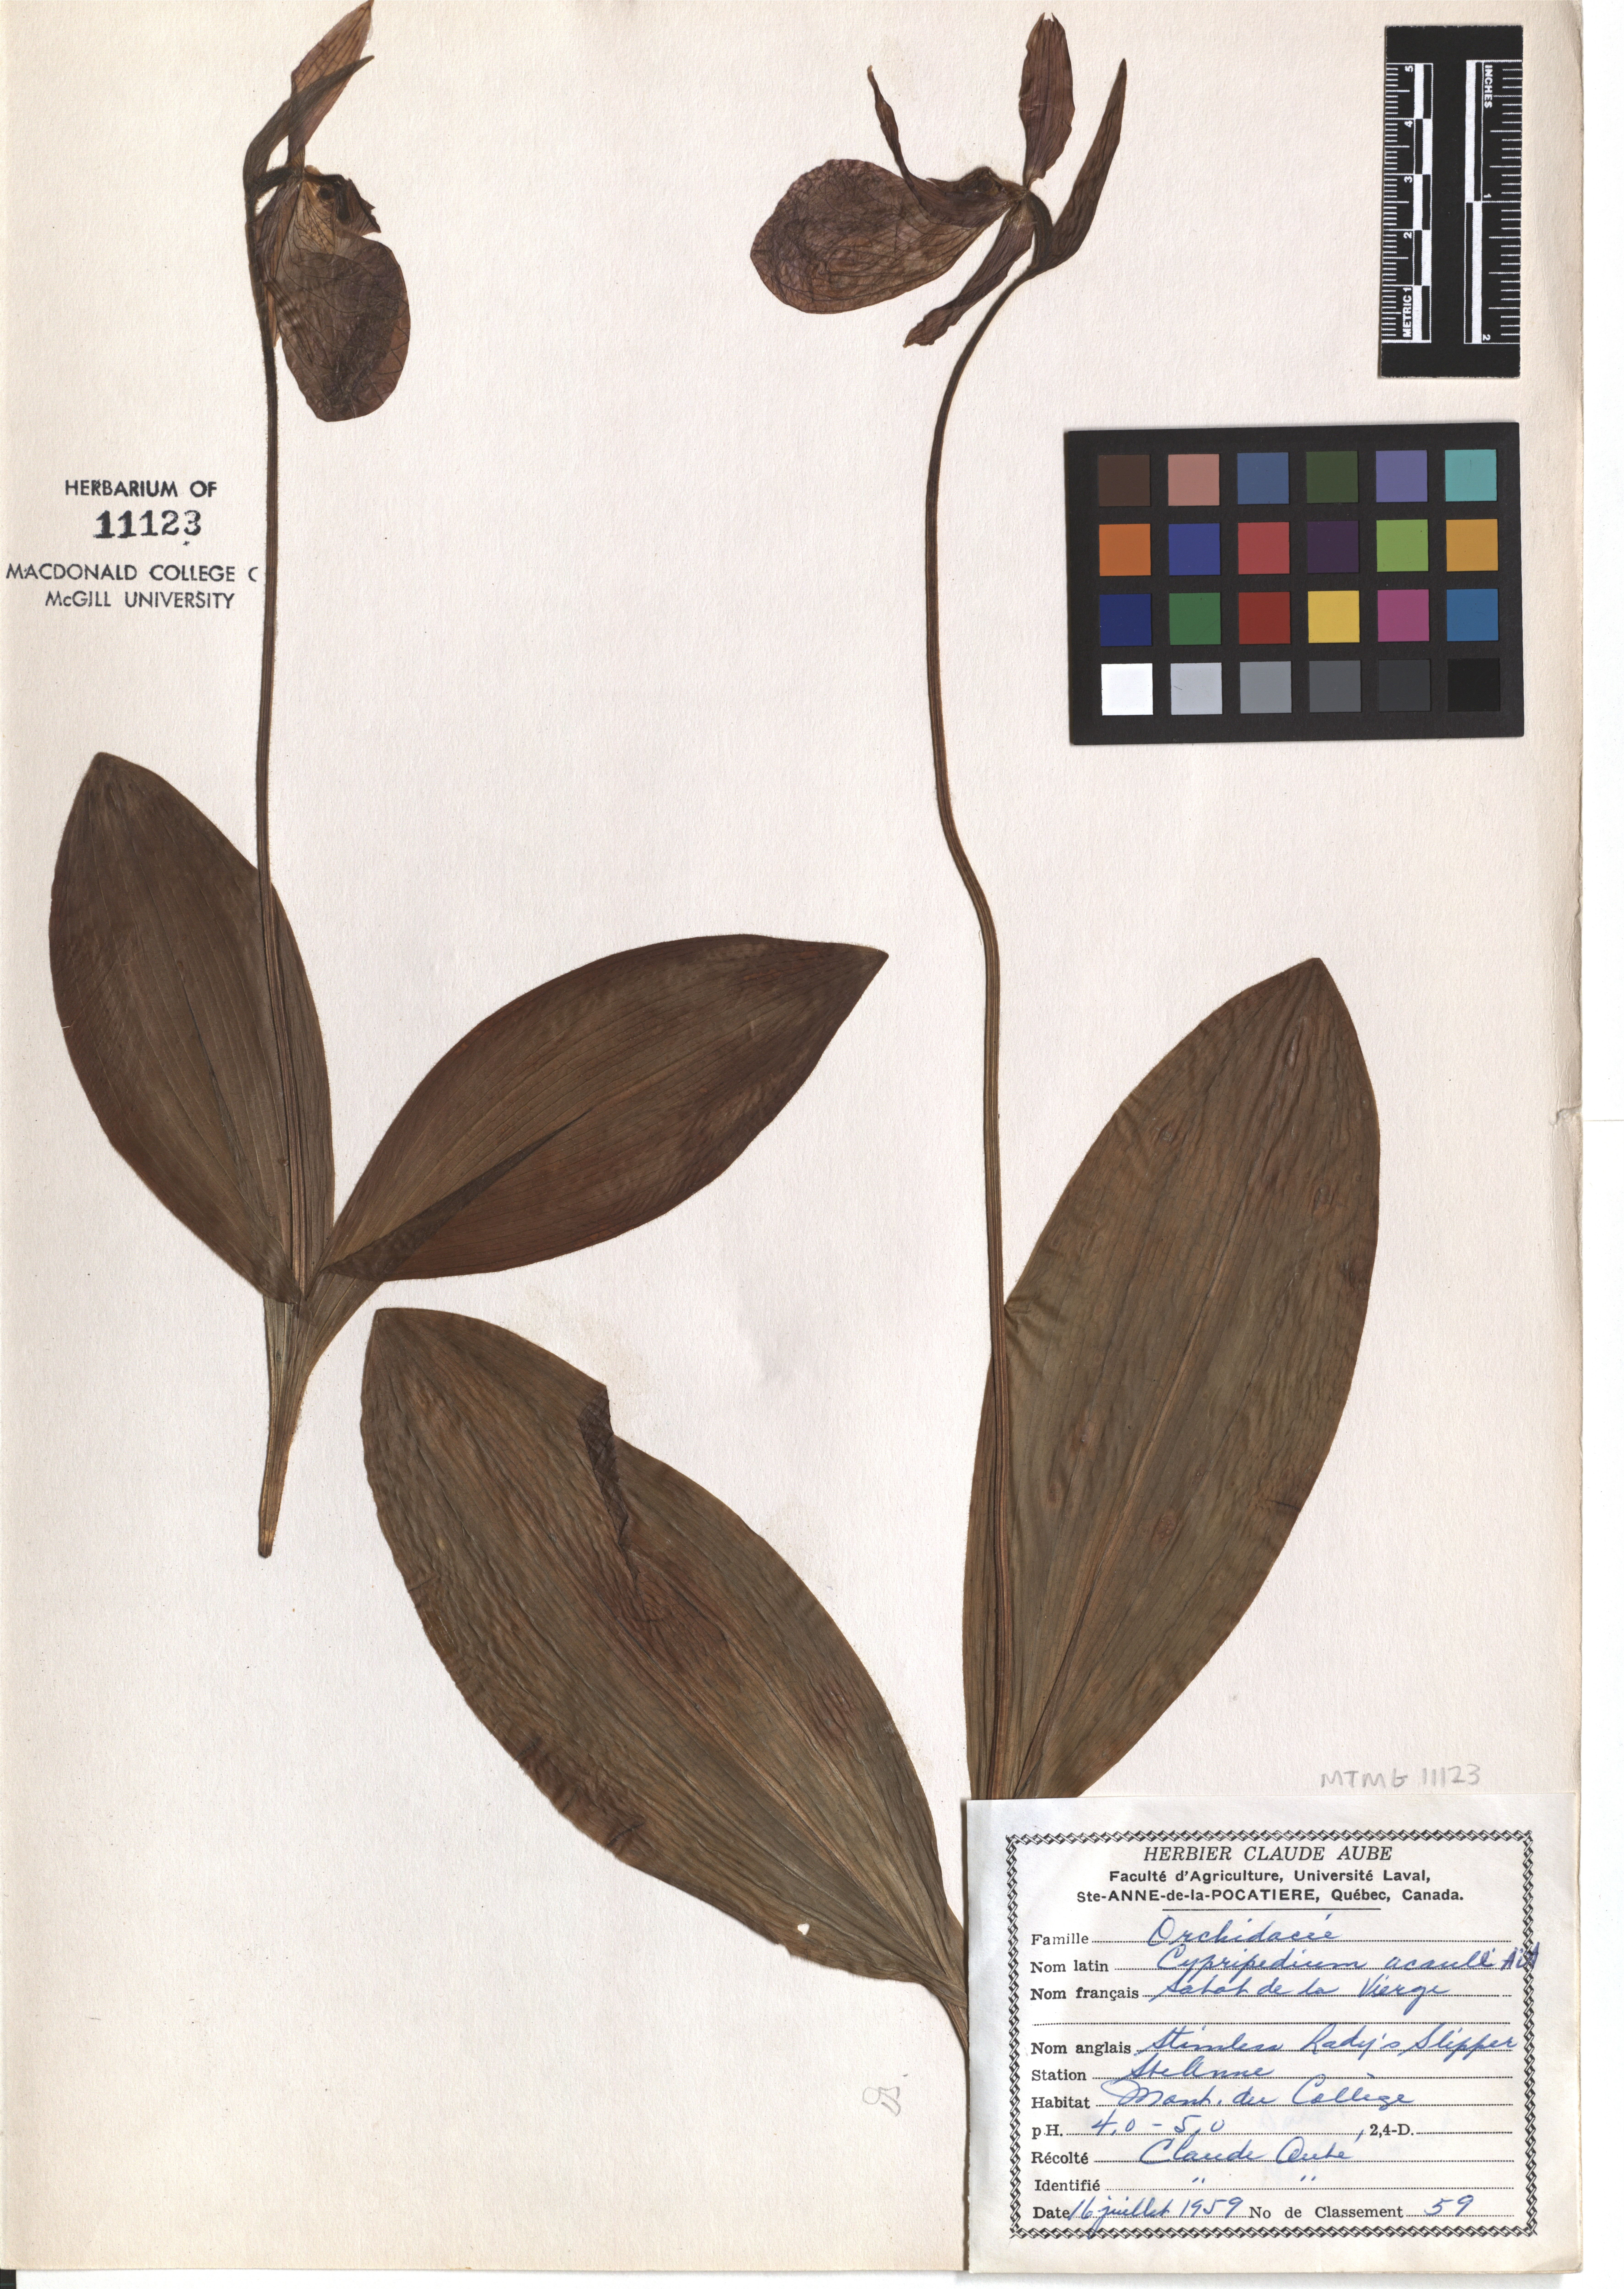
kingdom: Plantae
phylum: Tracheophyta
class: Liliopsida
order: Asparagales
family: Orchidaceae
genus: Cypripedium
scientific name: Cypripedium acaule
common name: Pink lady's-slipper
